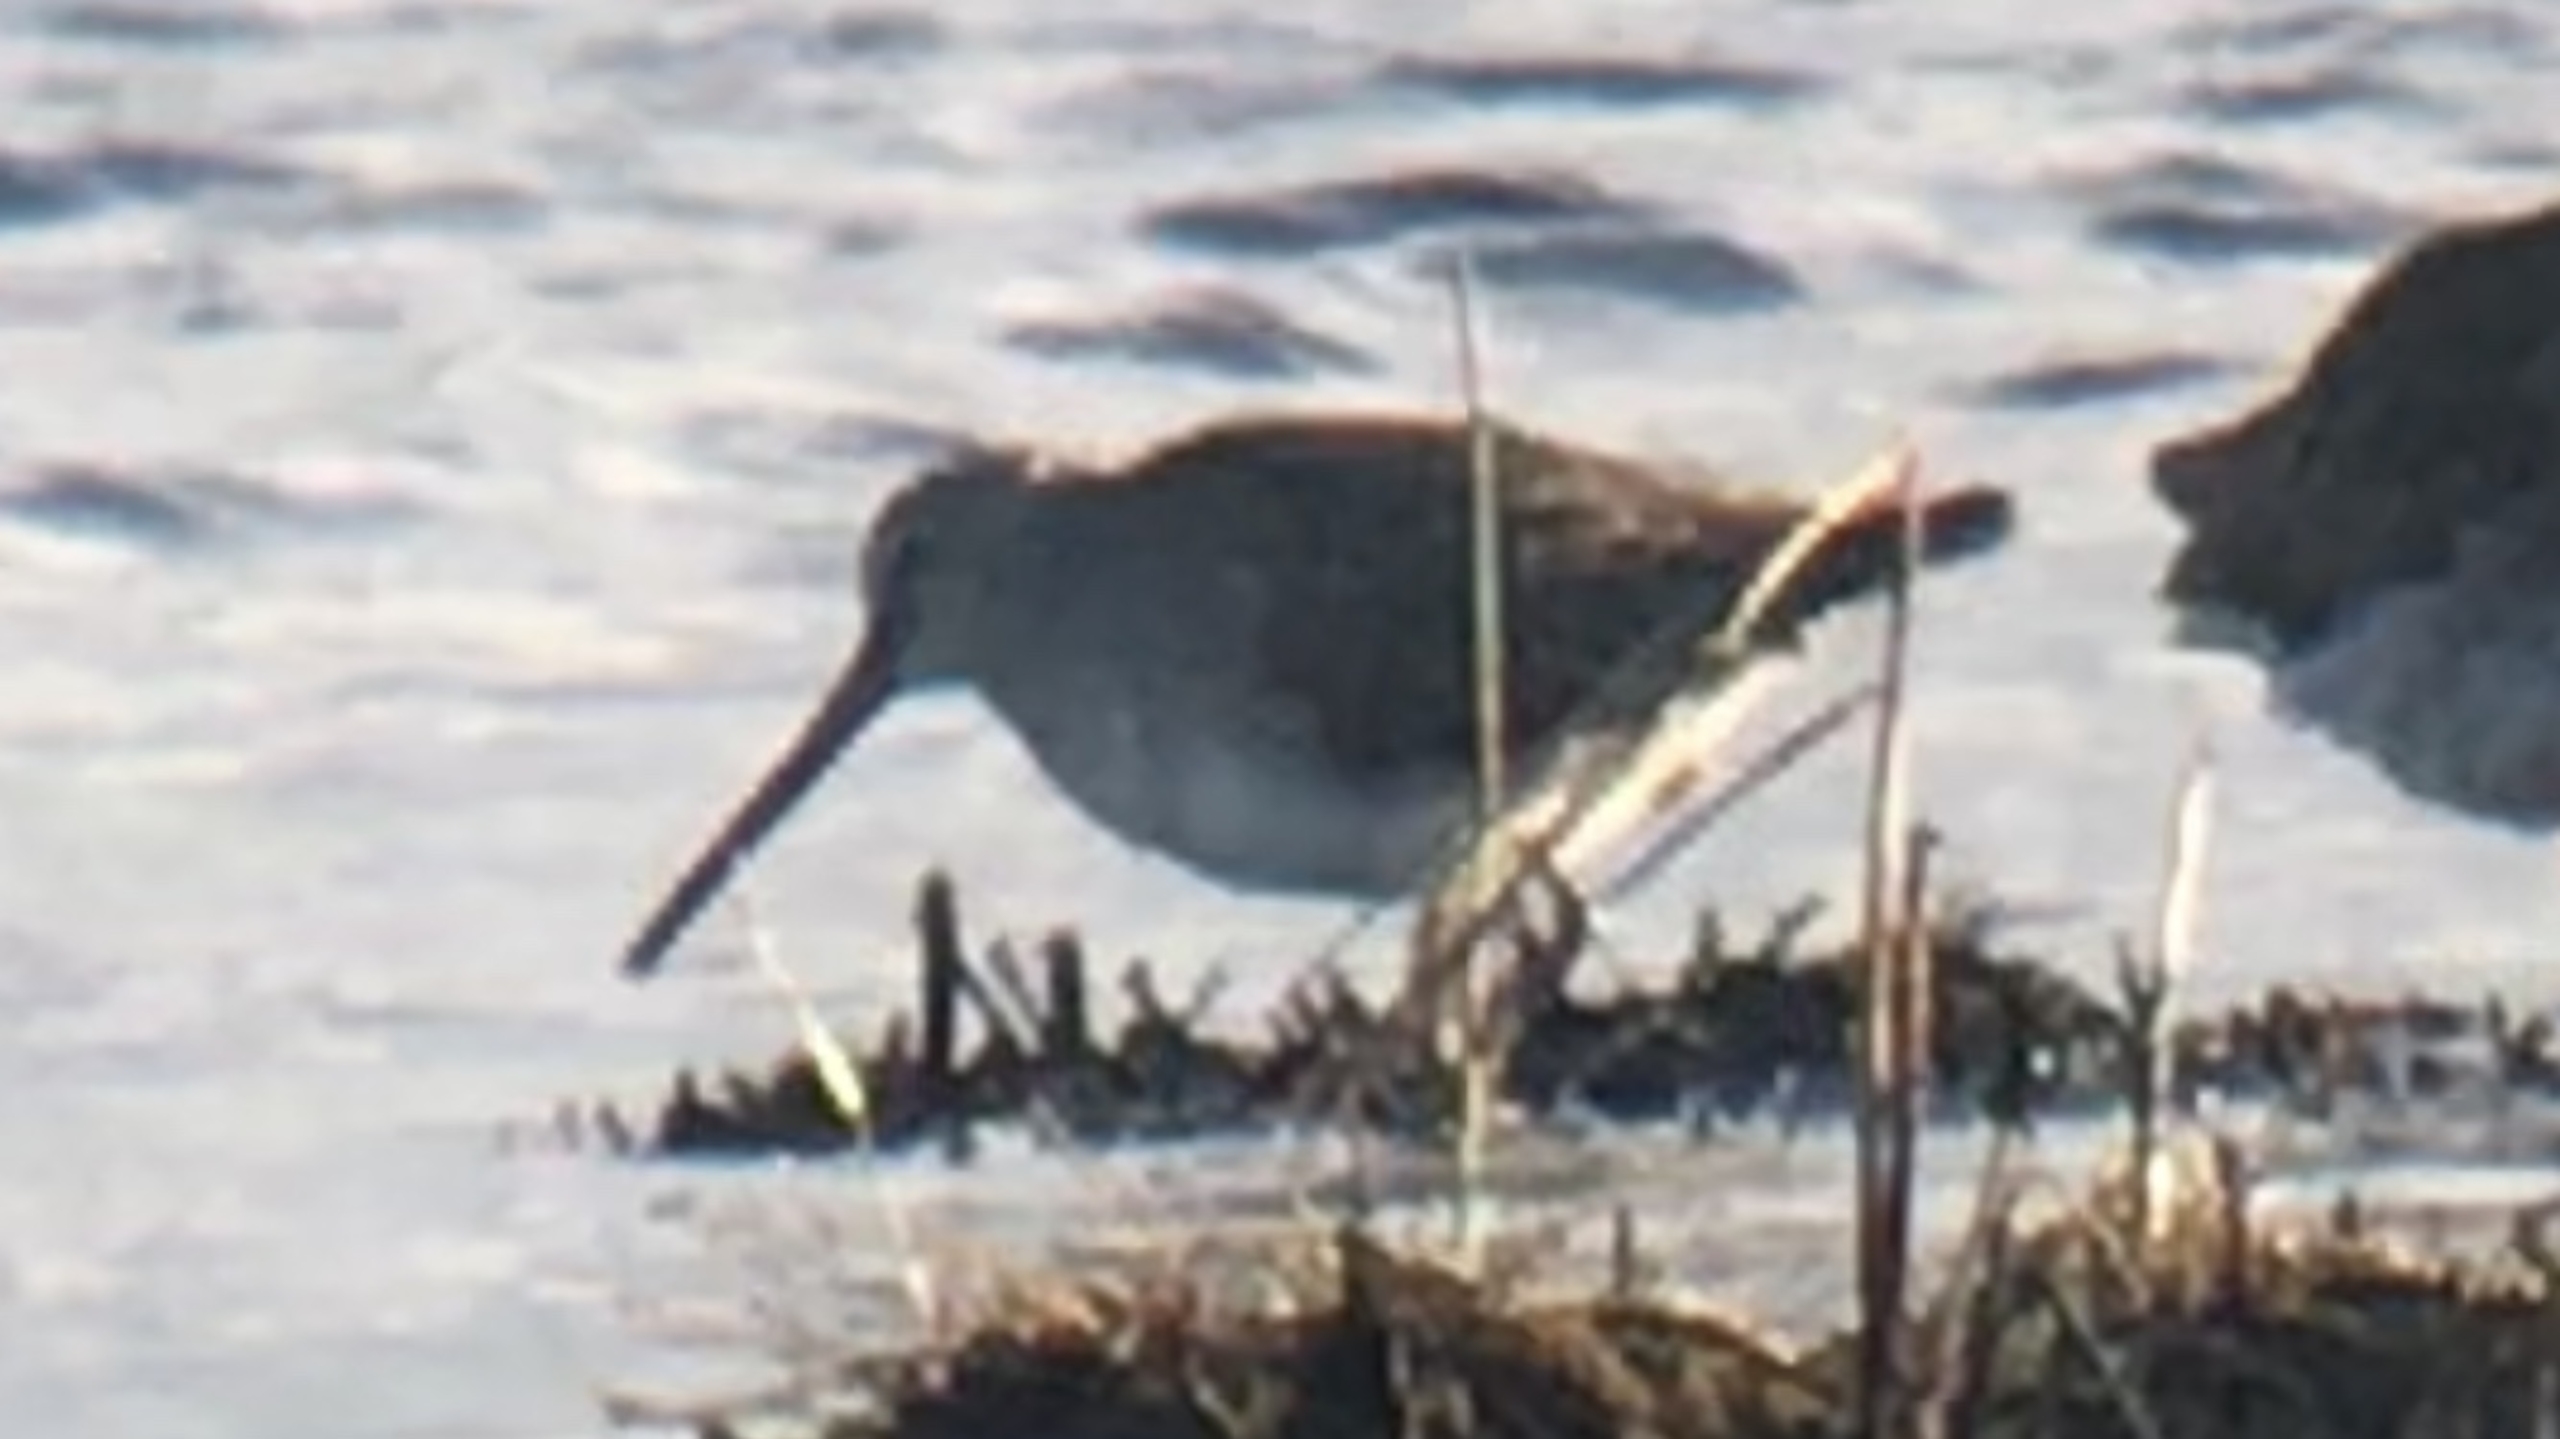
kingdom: Animalia
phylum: Chordata
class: Aves
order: Charadriiformes
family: Scolopacidae
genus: Limnodromus
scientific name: Limnodromus scolopaceus
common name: Langnæbbet sneppeklire
